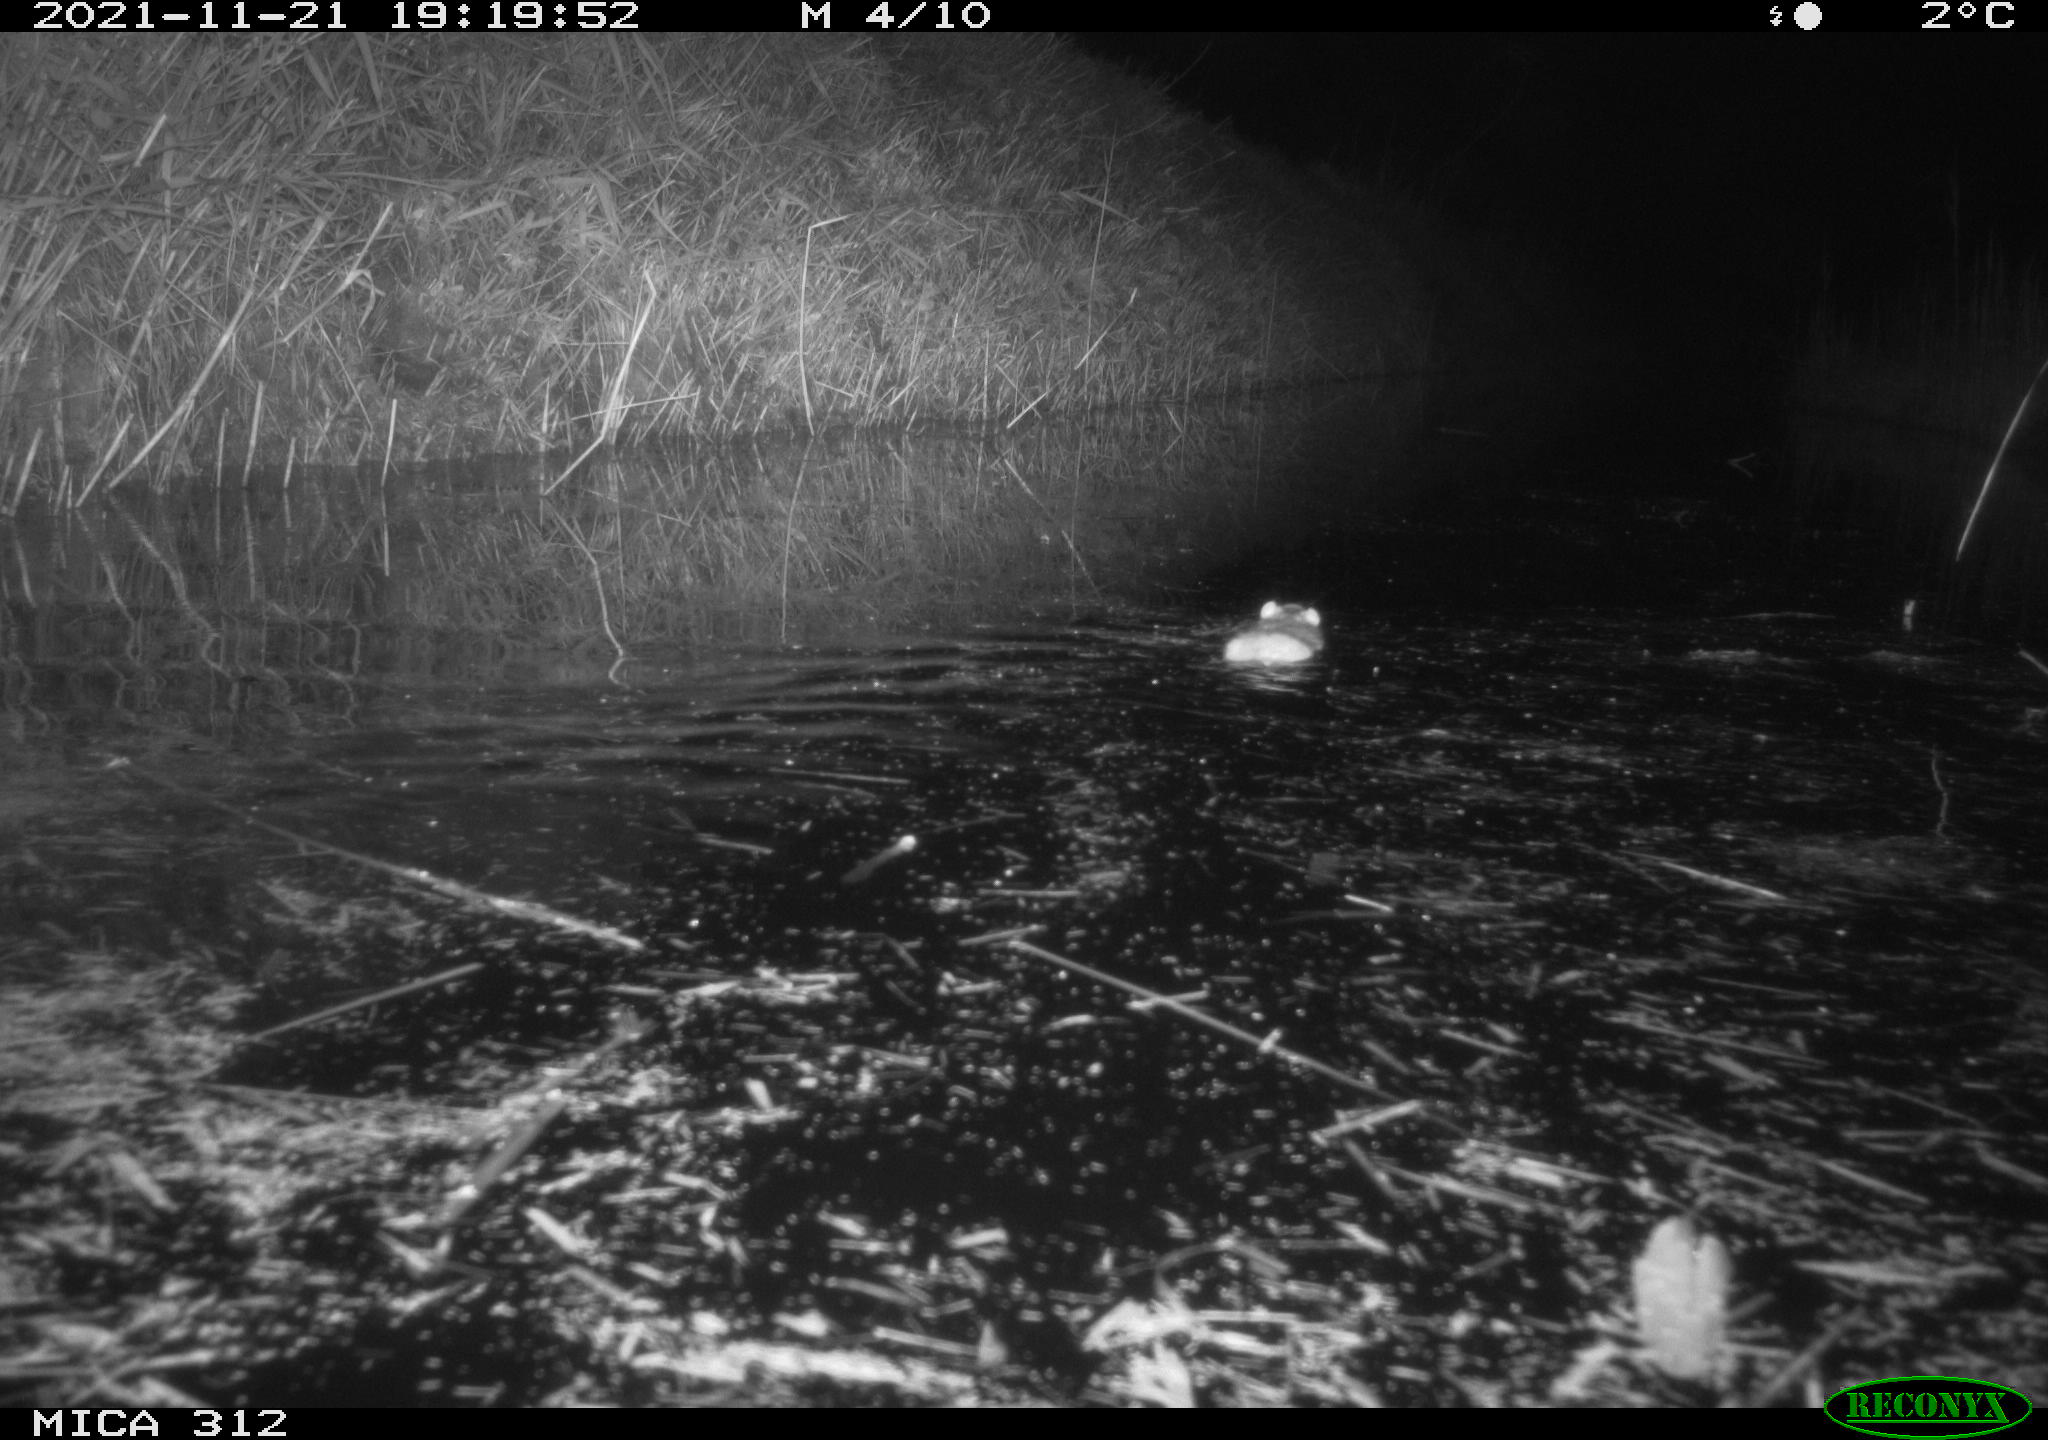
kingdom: Animalia
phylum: Chordata
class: Mammalia
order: Rodentia
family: Muridae
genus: Rattus
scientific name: Rattus norvegicus
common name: Brown rat
